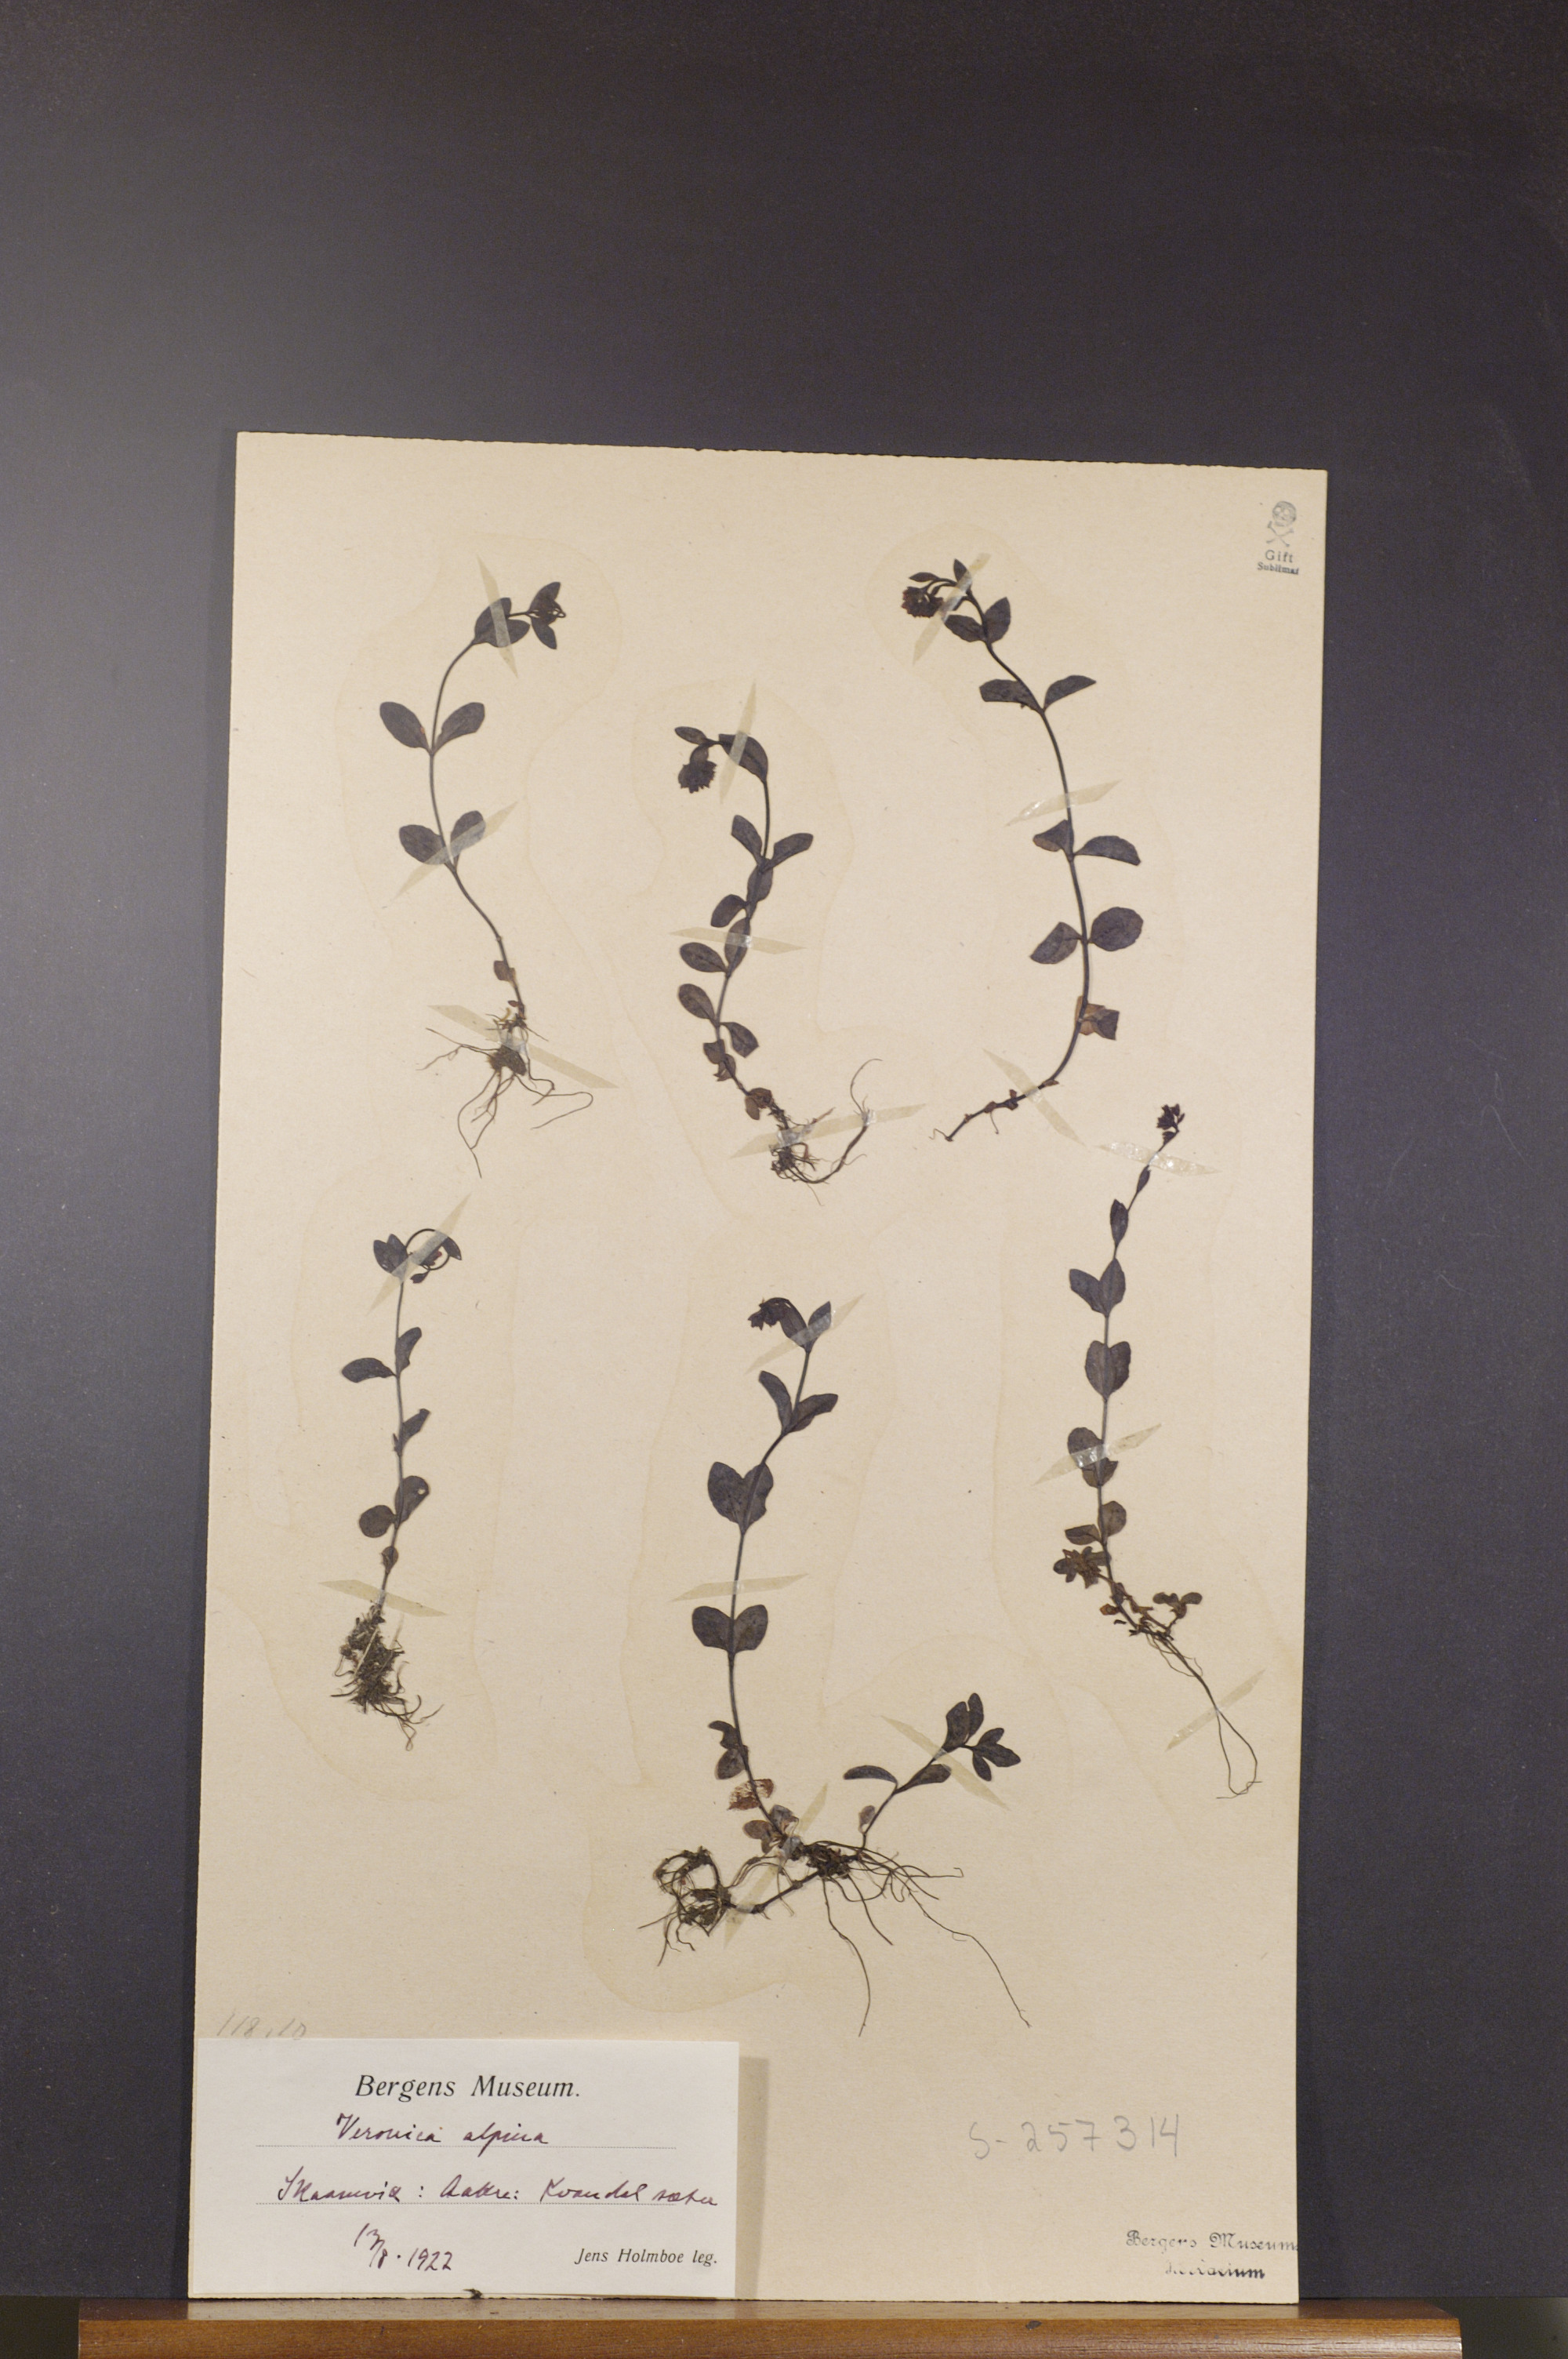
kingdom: Plantae
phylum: Tracheophyta
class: Magnoliopsida
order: Lamiales
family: Plantaginaceae
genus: Veronica
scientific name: Veronica alpina
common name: Alpine speedwell
